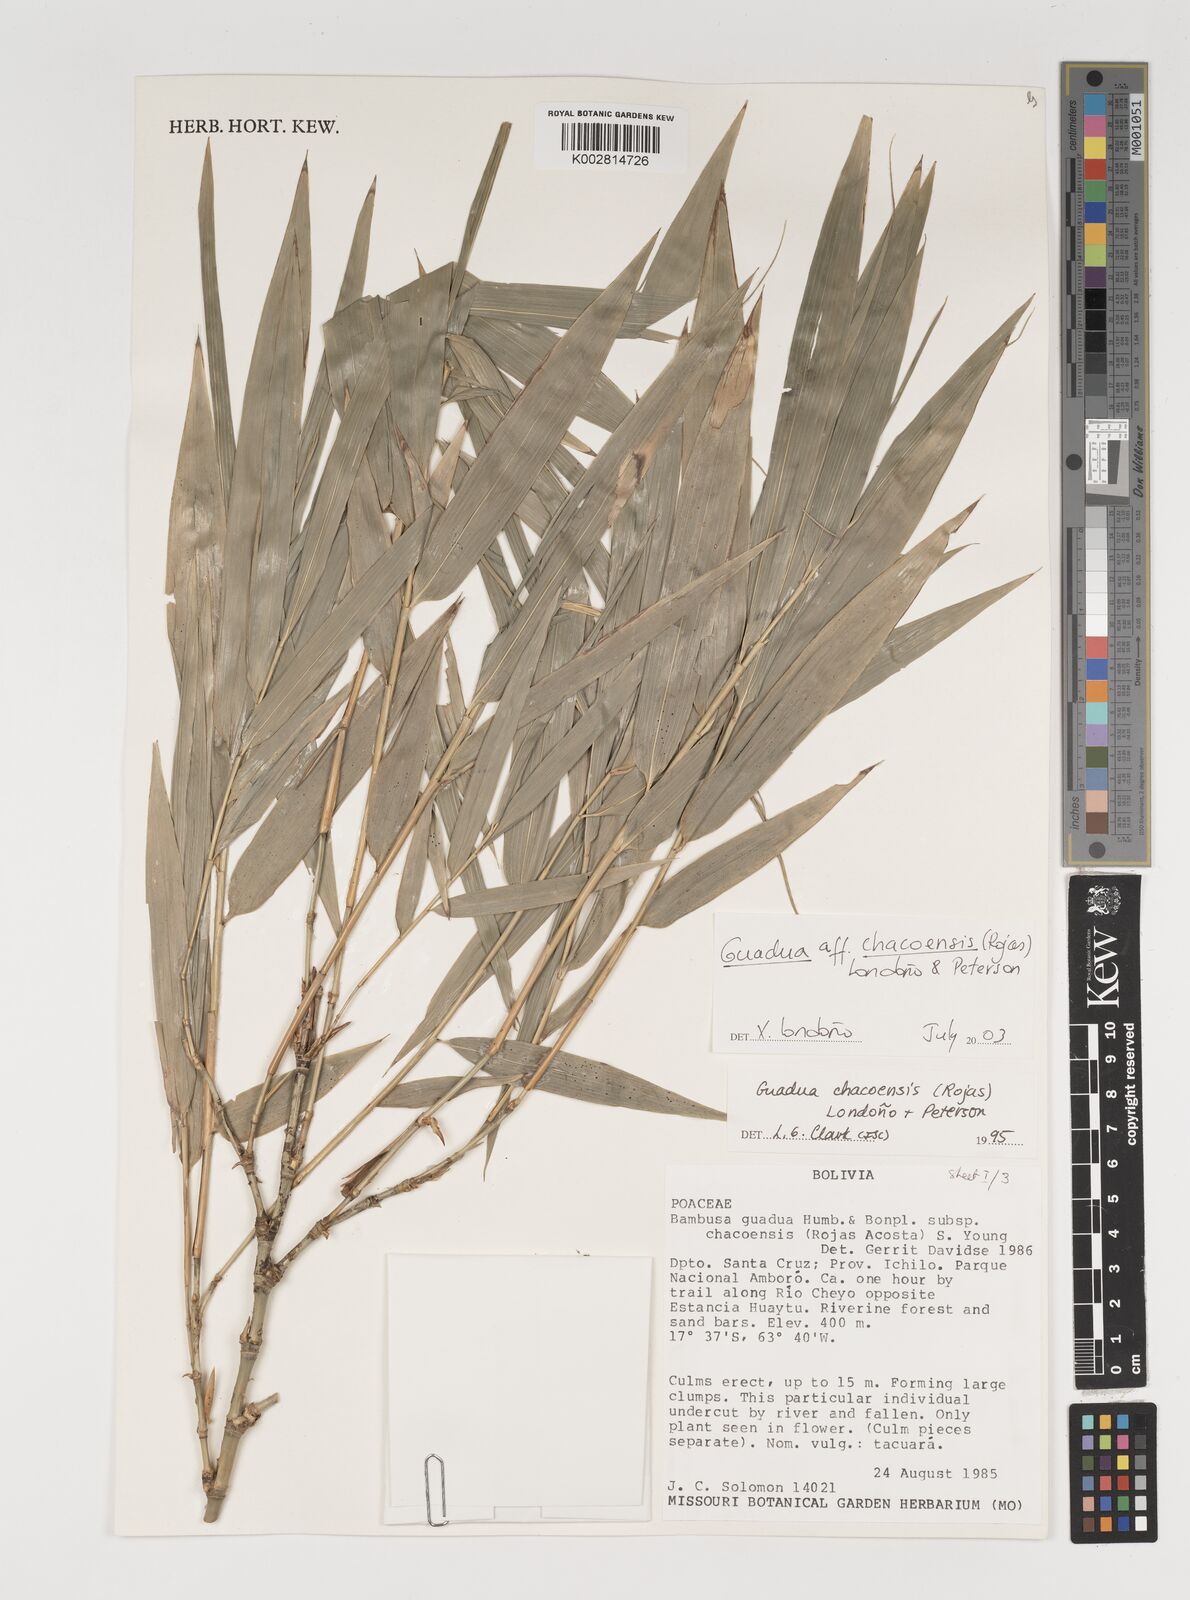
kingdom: Plantae
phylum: Tracheophyta
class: Liliopsida
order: Poales
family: Poaceae
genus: Guadua
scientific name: Guadua chacoensis
